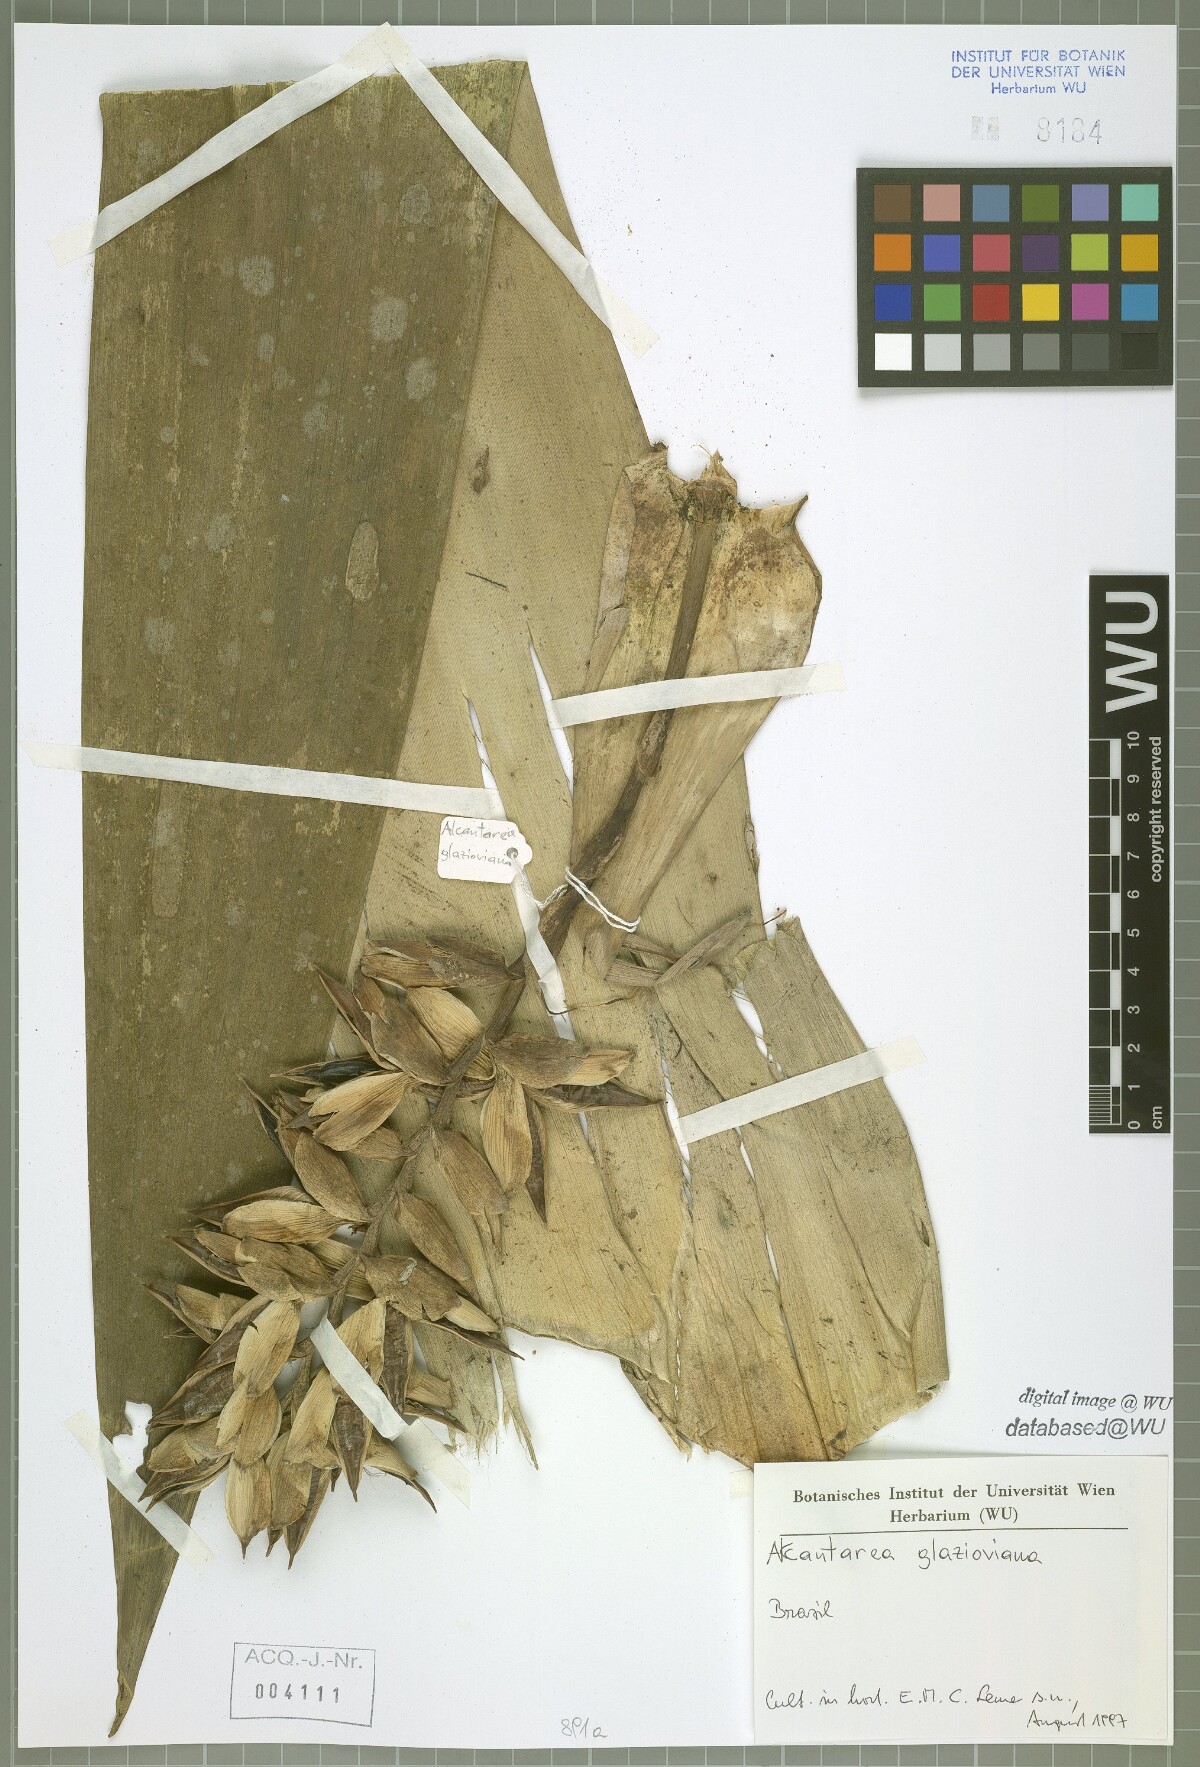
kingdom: Plantae
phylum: Tracheophyta
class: Liliopsida
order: Poales
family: Bromeliaceae
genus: Alcantarea
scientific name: Alcantarea glaziouana
